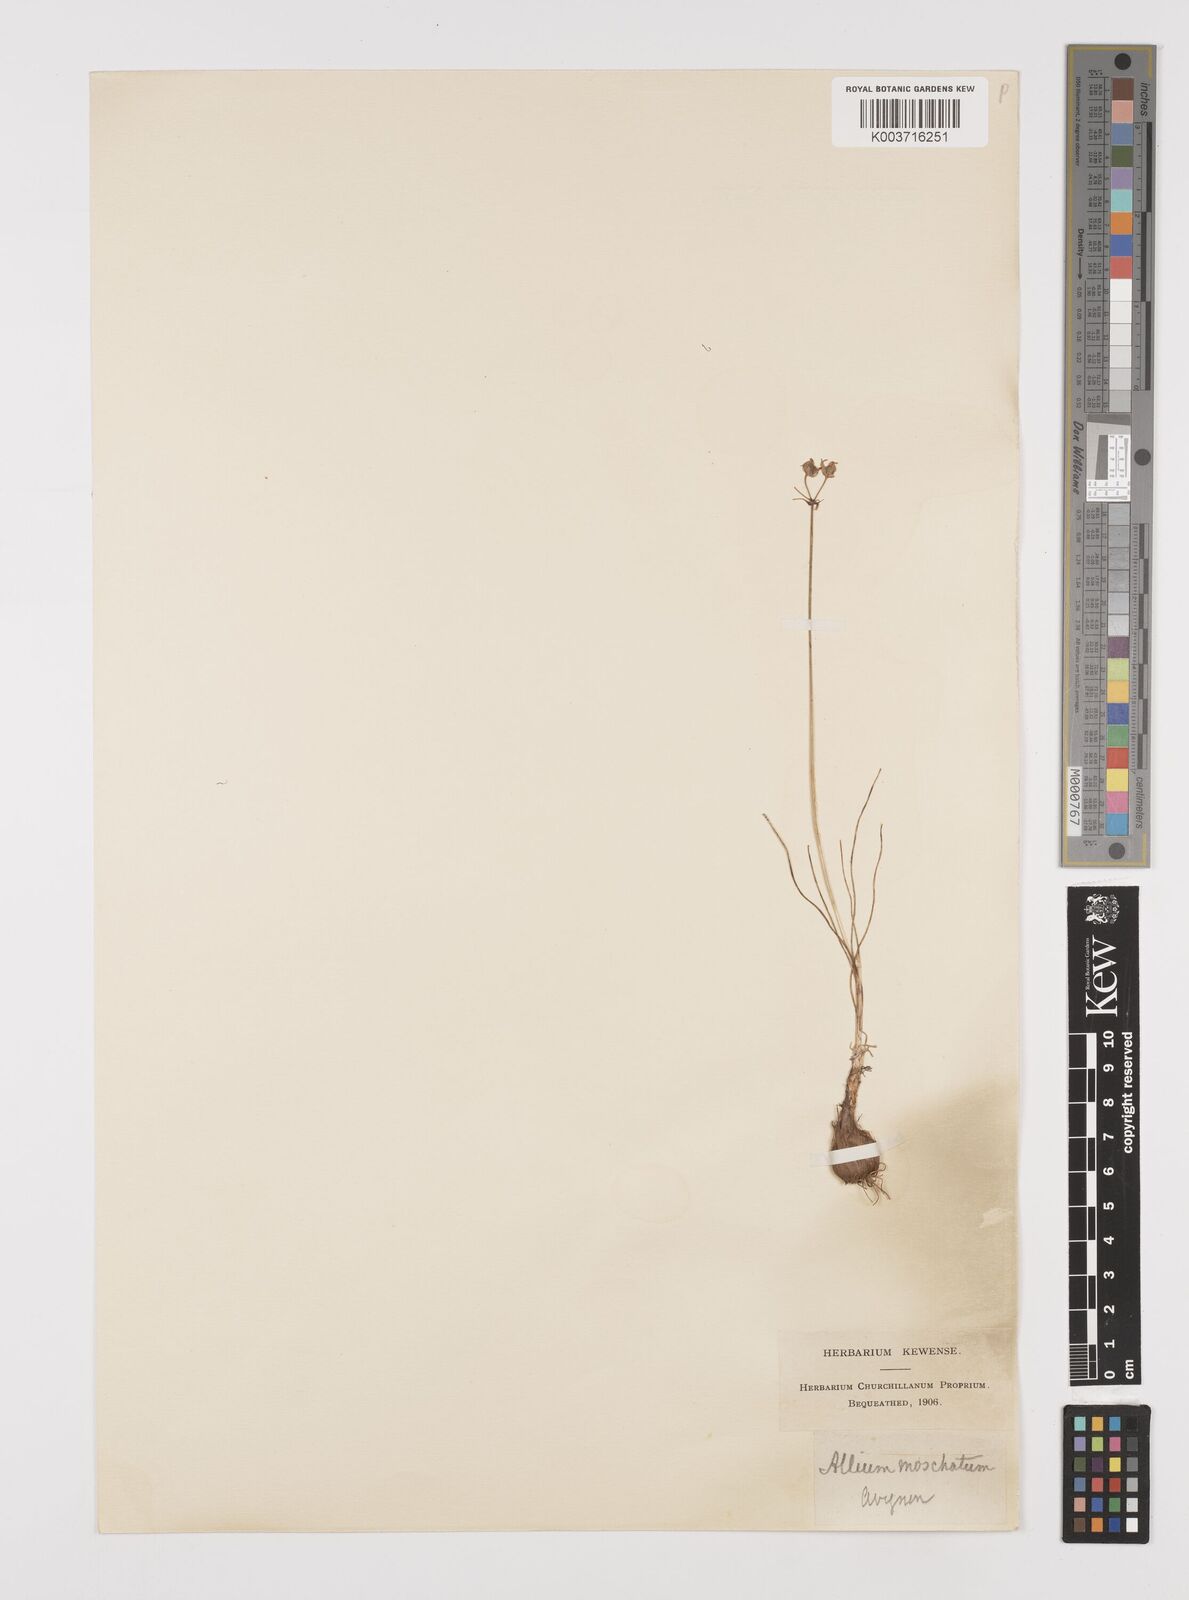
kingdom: Plantae
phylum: Tracheophyta
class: Liliopsida
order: Asparagales
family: Amaryllidaceae
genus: Allium
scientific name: Allium moschatum
